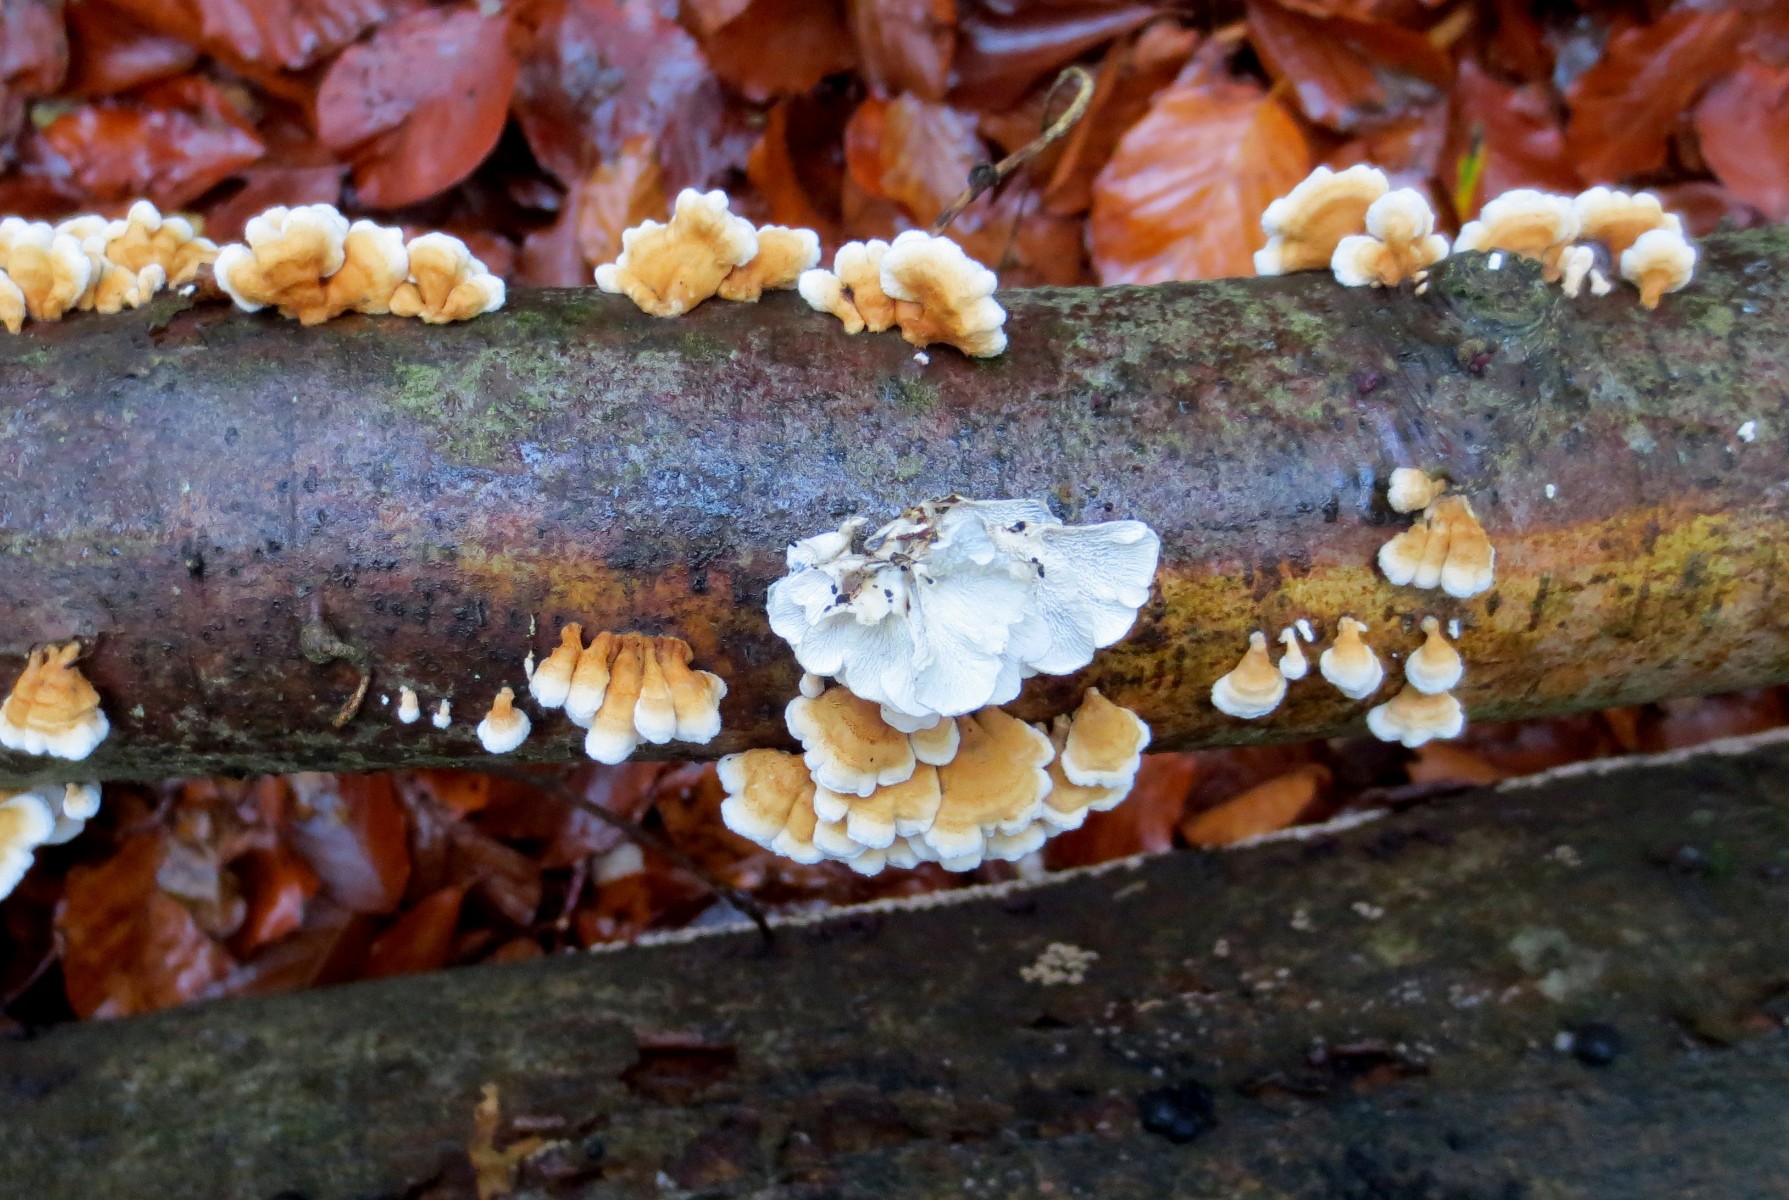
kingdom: Fungi
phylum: Basidiomycota
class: Agaricomycetes
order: Amylocorticiales
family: Amylocorticiaceae
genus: Plicaturopsis
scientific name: Plicaturopsis crispa
